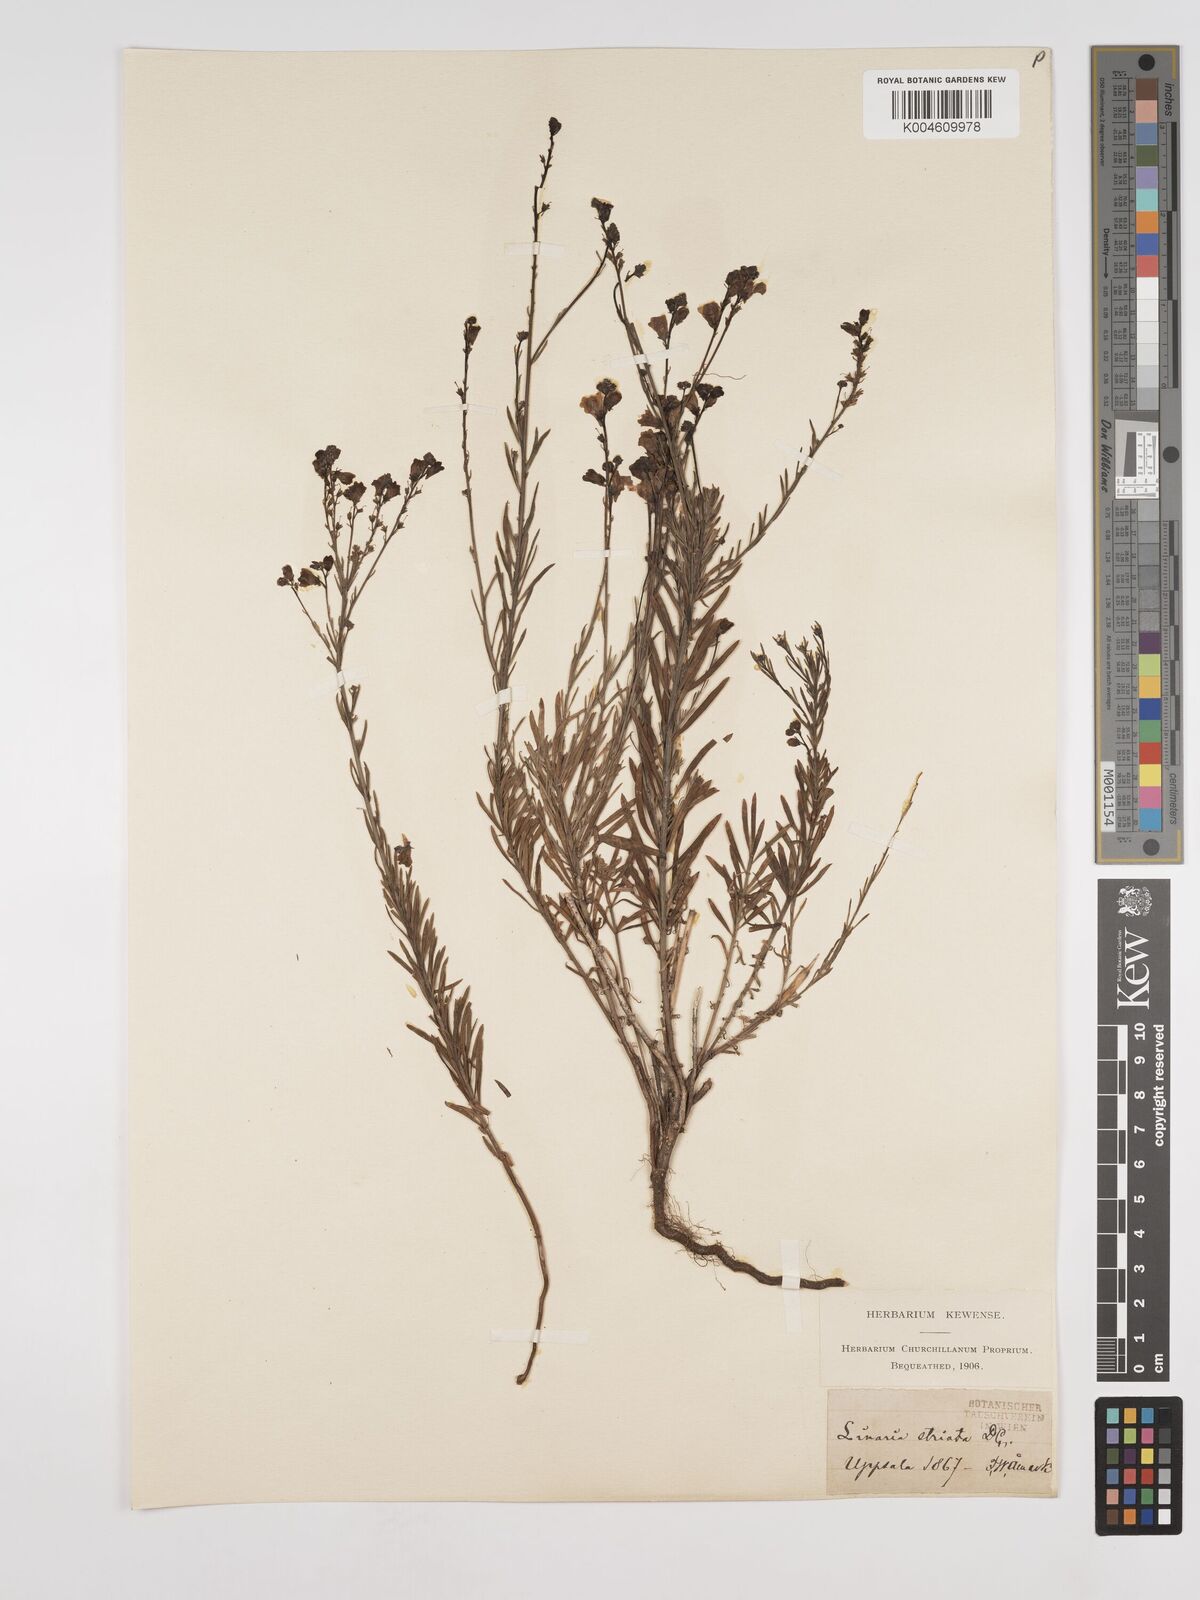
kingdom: Plantae
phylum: Tracheophyta
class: Magnoliopsida
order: Lamiales
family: Plantaginaceae
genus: Linaria
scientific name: Linaria
